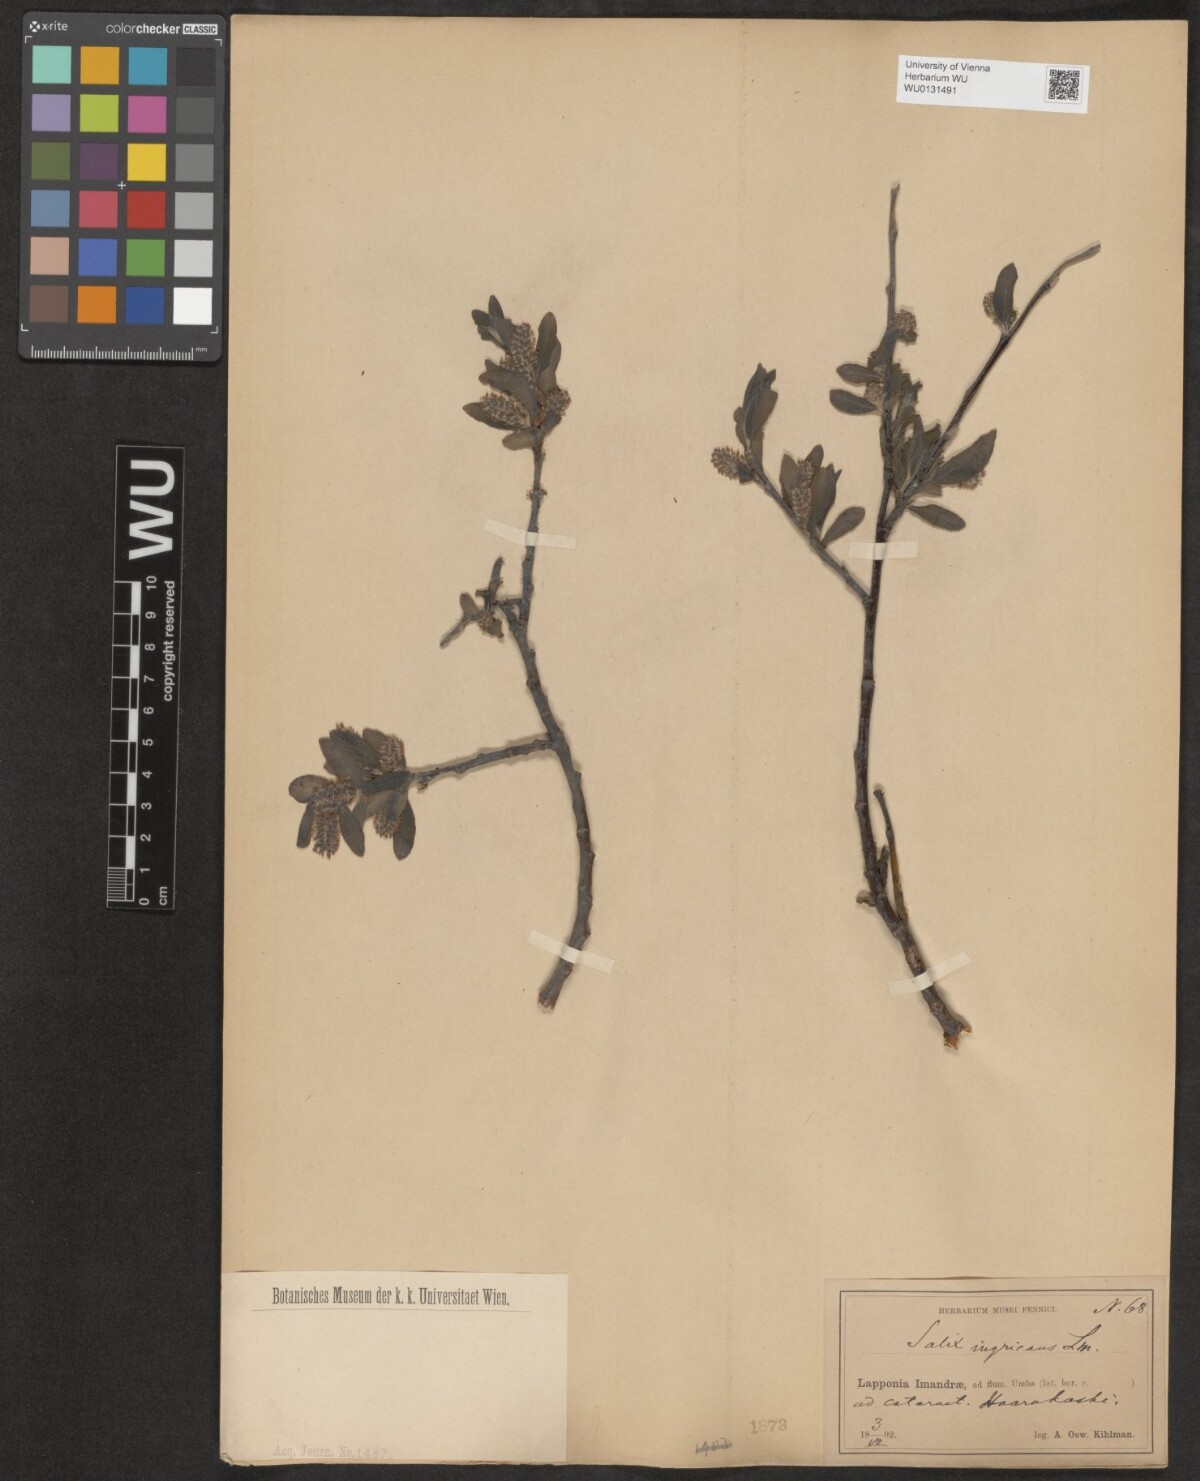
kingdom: Plantae
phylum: Tracheophyta
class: Magnoliopsida
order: Malpighiales
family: Salicaceae
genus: Salix
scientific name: Salix myrsinifolia
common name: Dark-leaved willow
